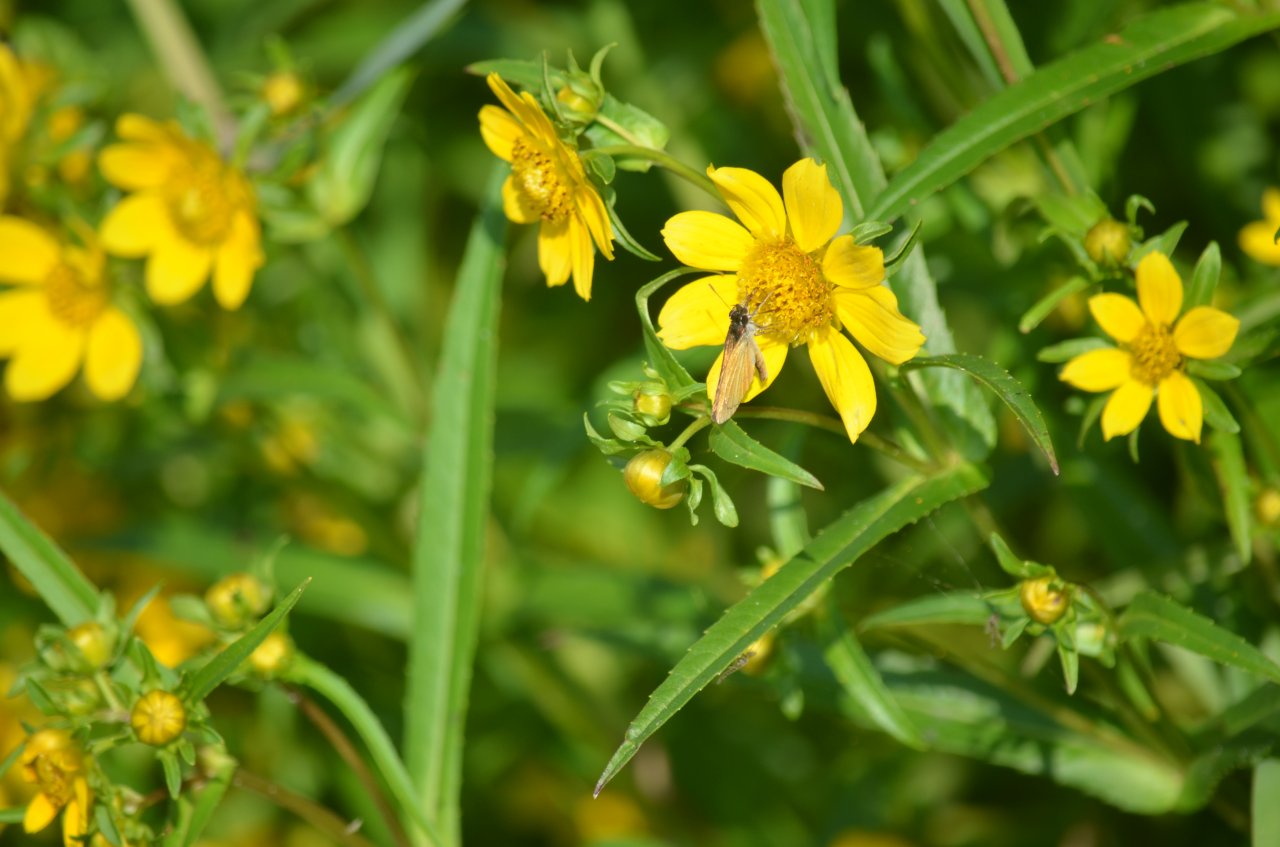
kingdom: Animalia
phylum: Arthropoda
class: Insecta
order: Lepidoptera
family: Hesperiidae
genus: Ancyloxypha
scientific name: Ancyloxypha numitor
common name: Least Skipper
